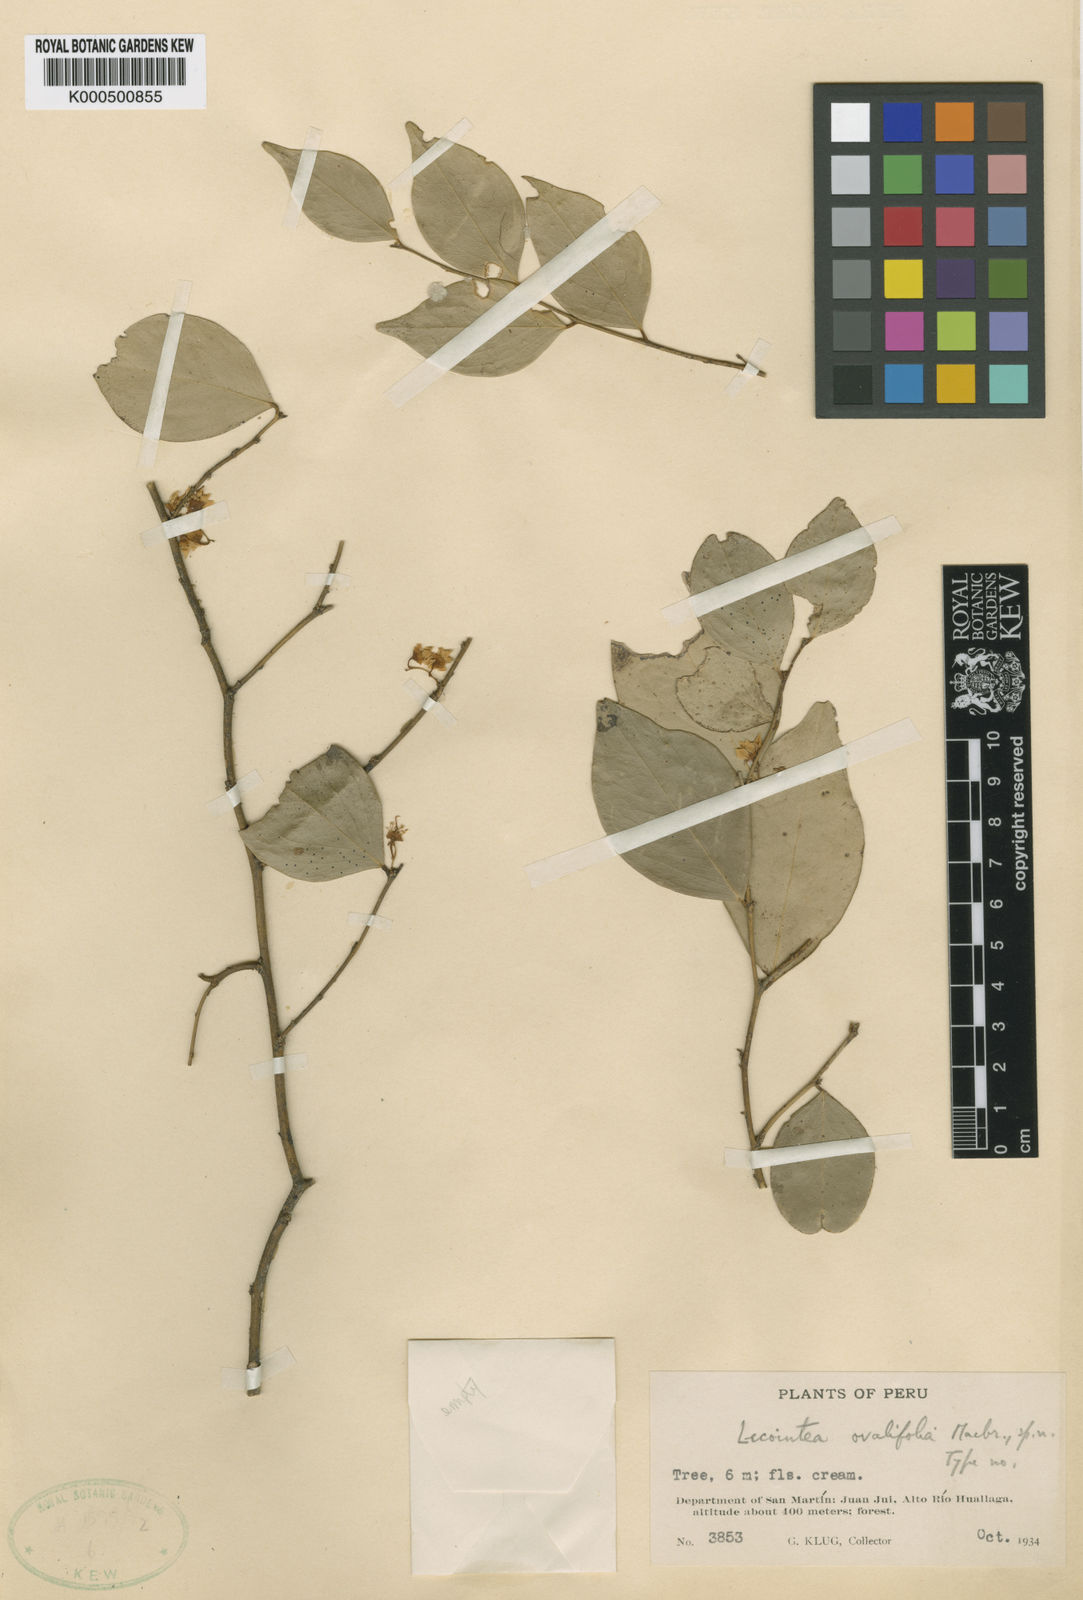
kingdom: Plantae
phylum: Tracheophyta
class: Magnoliopsida
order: Fabales
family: Fabaceae
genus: Lecointea
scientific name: Lecointea ovalifolia
